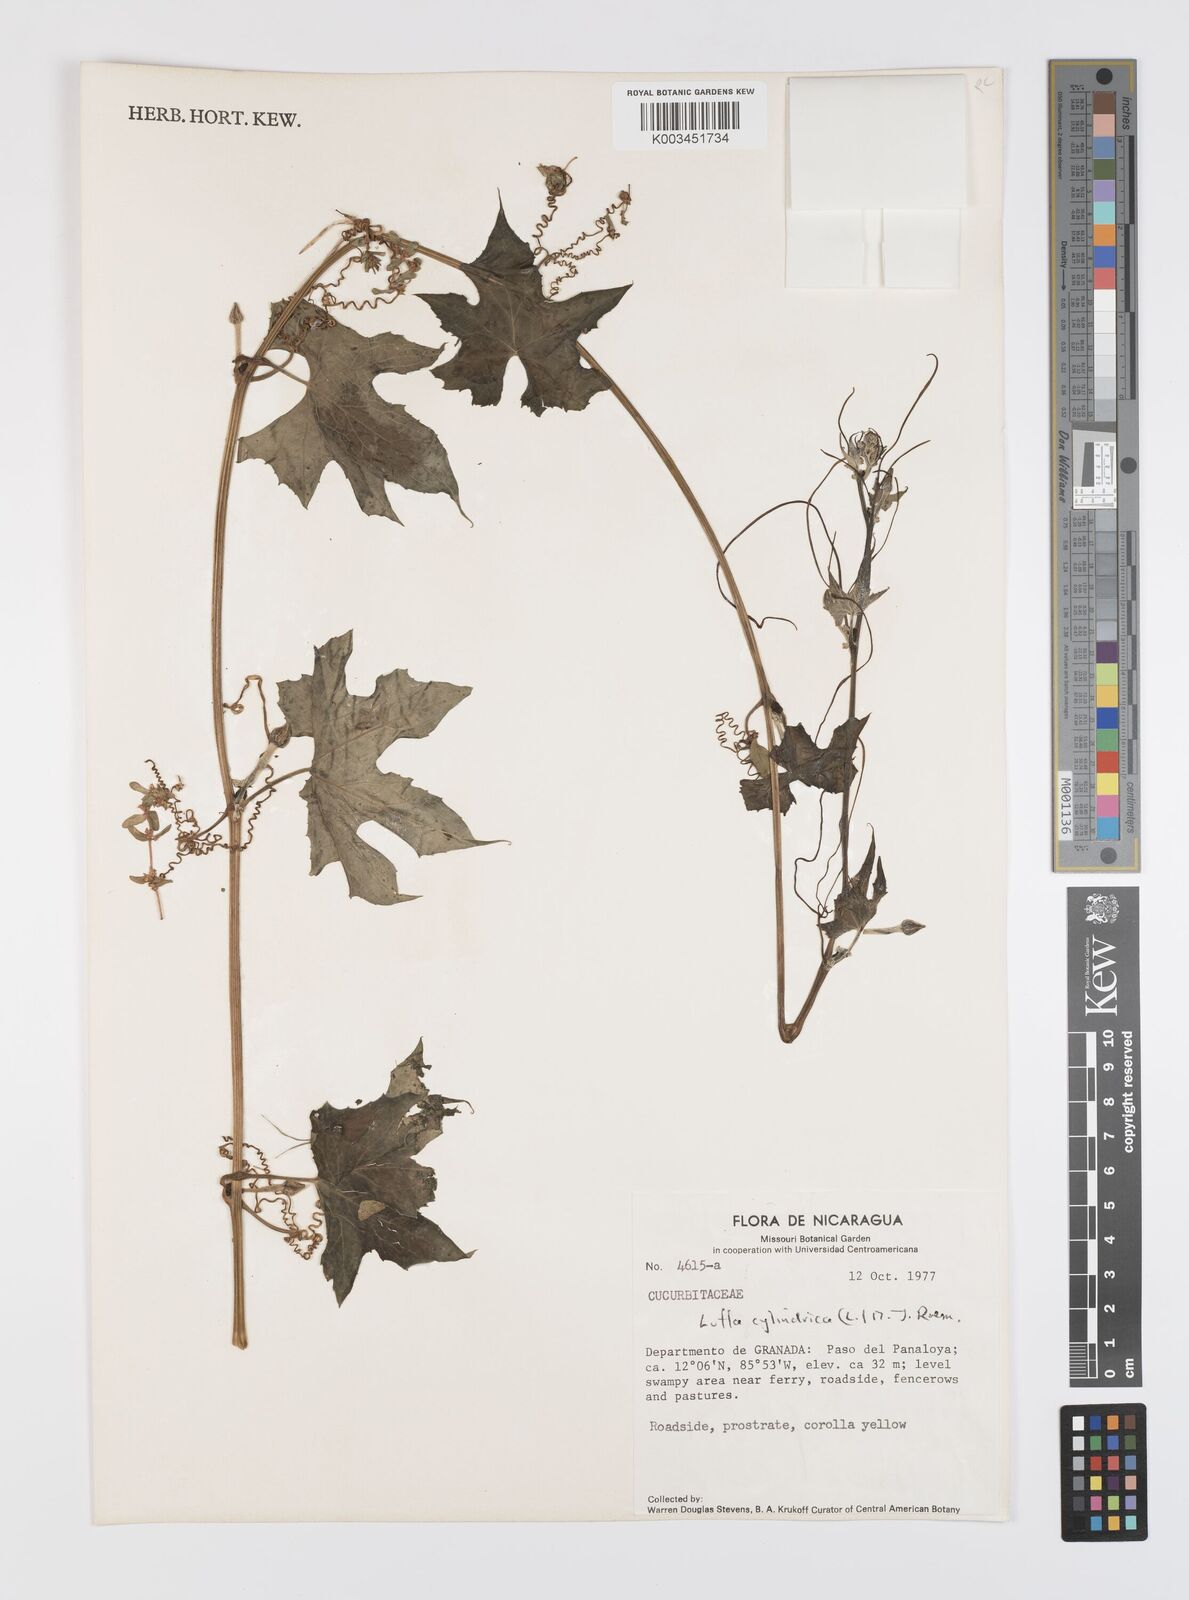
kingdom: Plantae
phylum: Tracheophyta
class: Magnoliopsida
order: Cucurbitales
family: Cucurbitaceae
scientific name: Cucurbitaceae
